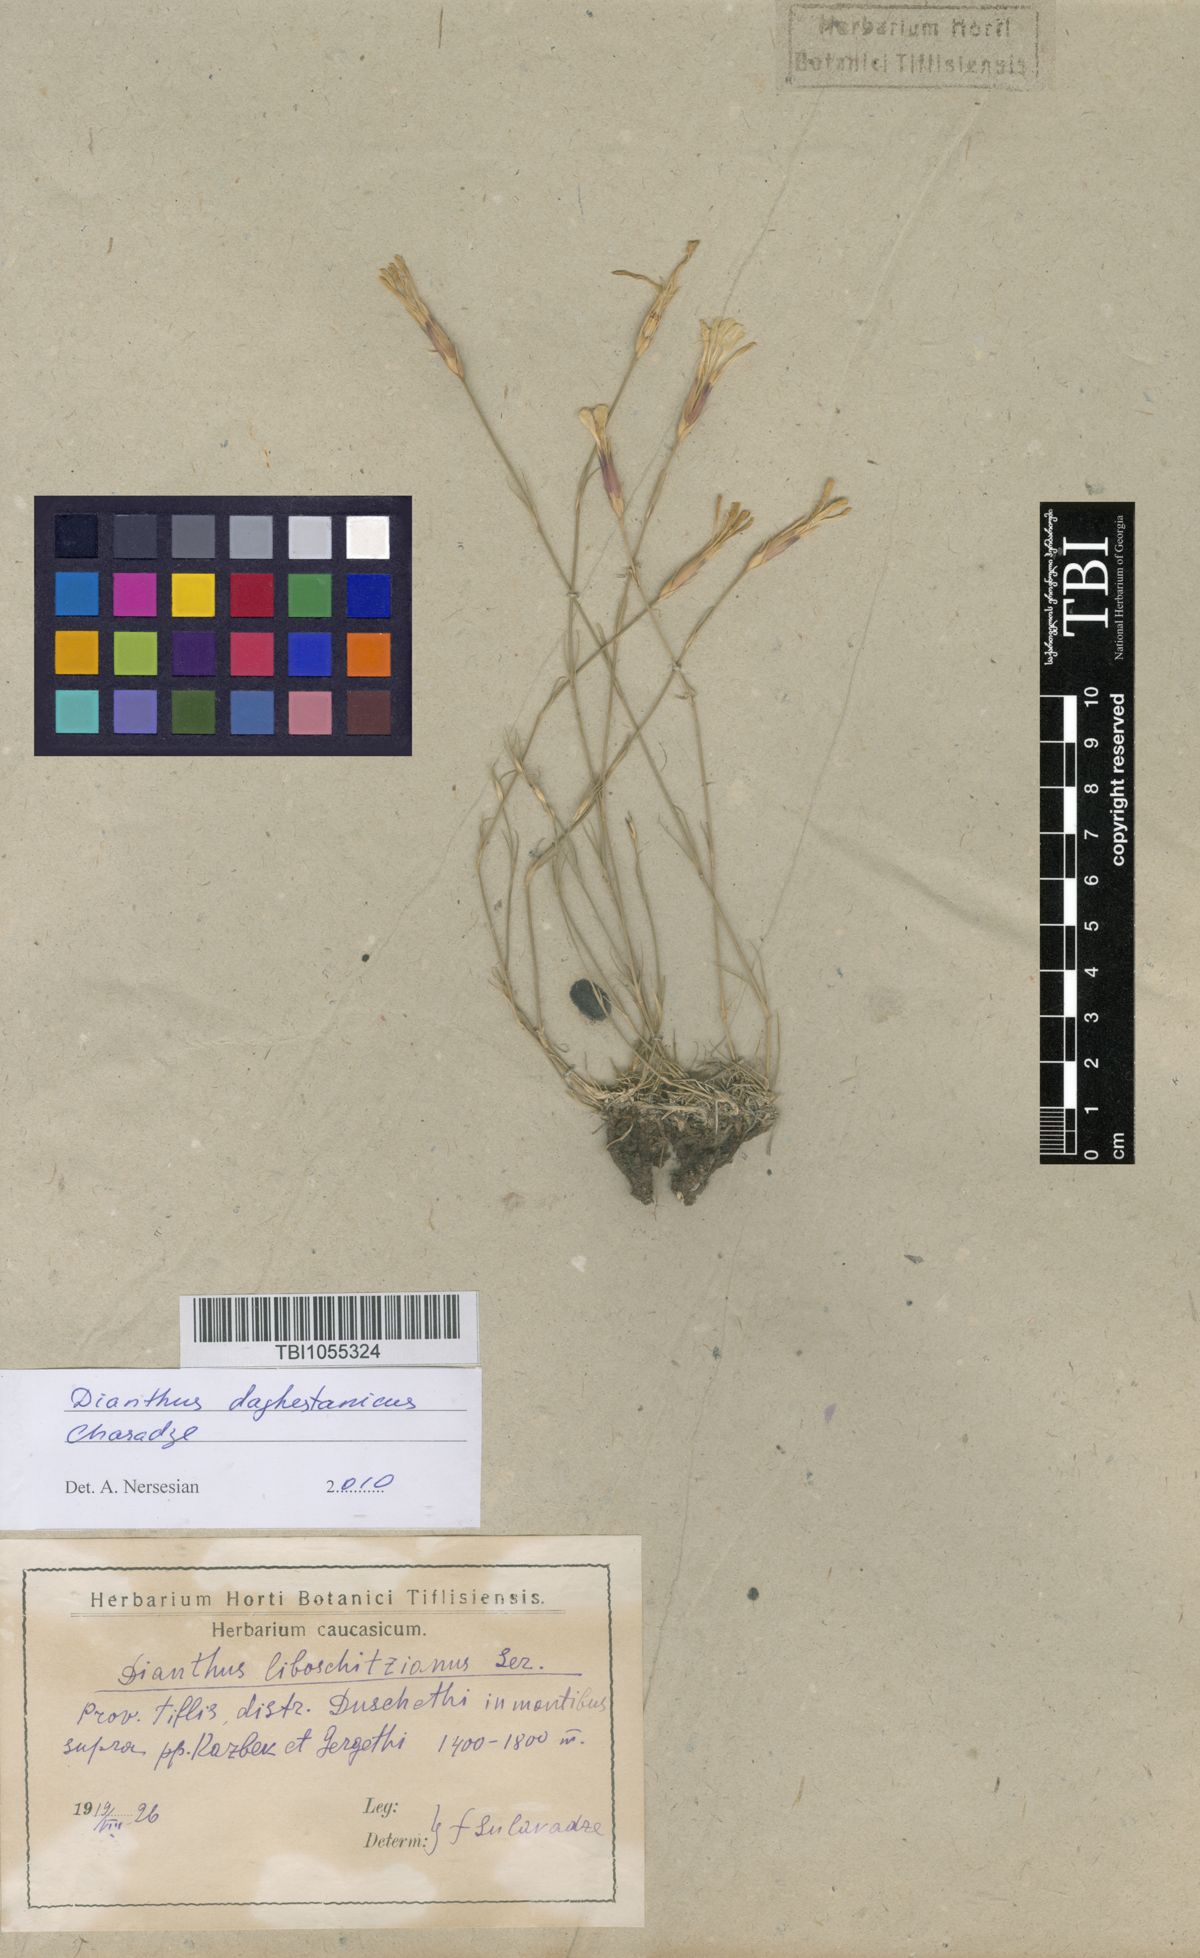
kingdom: Plantae
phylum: Tracheophyta
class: Magnoliopsida
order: Caryophyllales
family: Caryophyllaceae
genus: Dianthus
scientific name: Dianthus cretaceus
